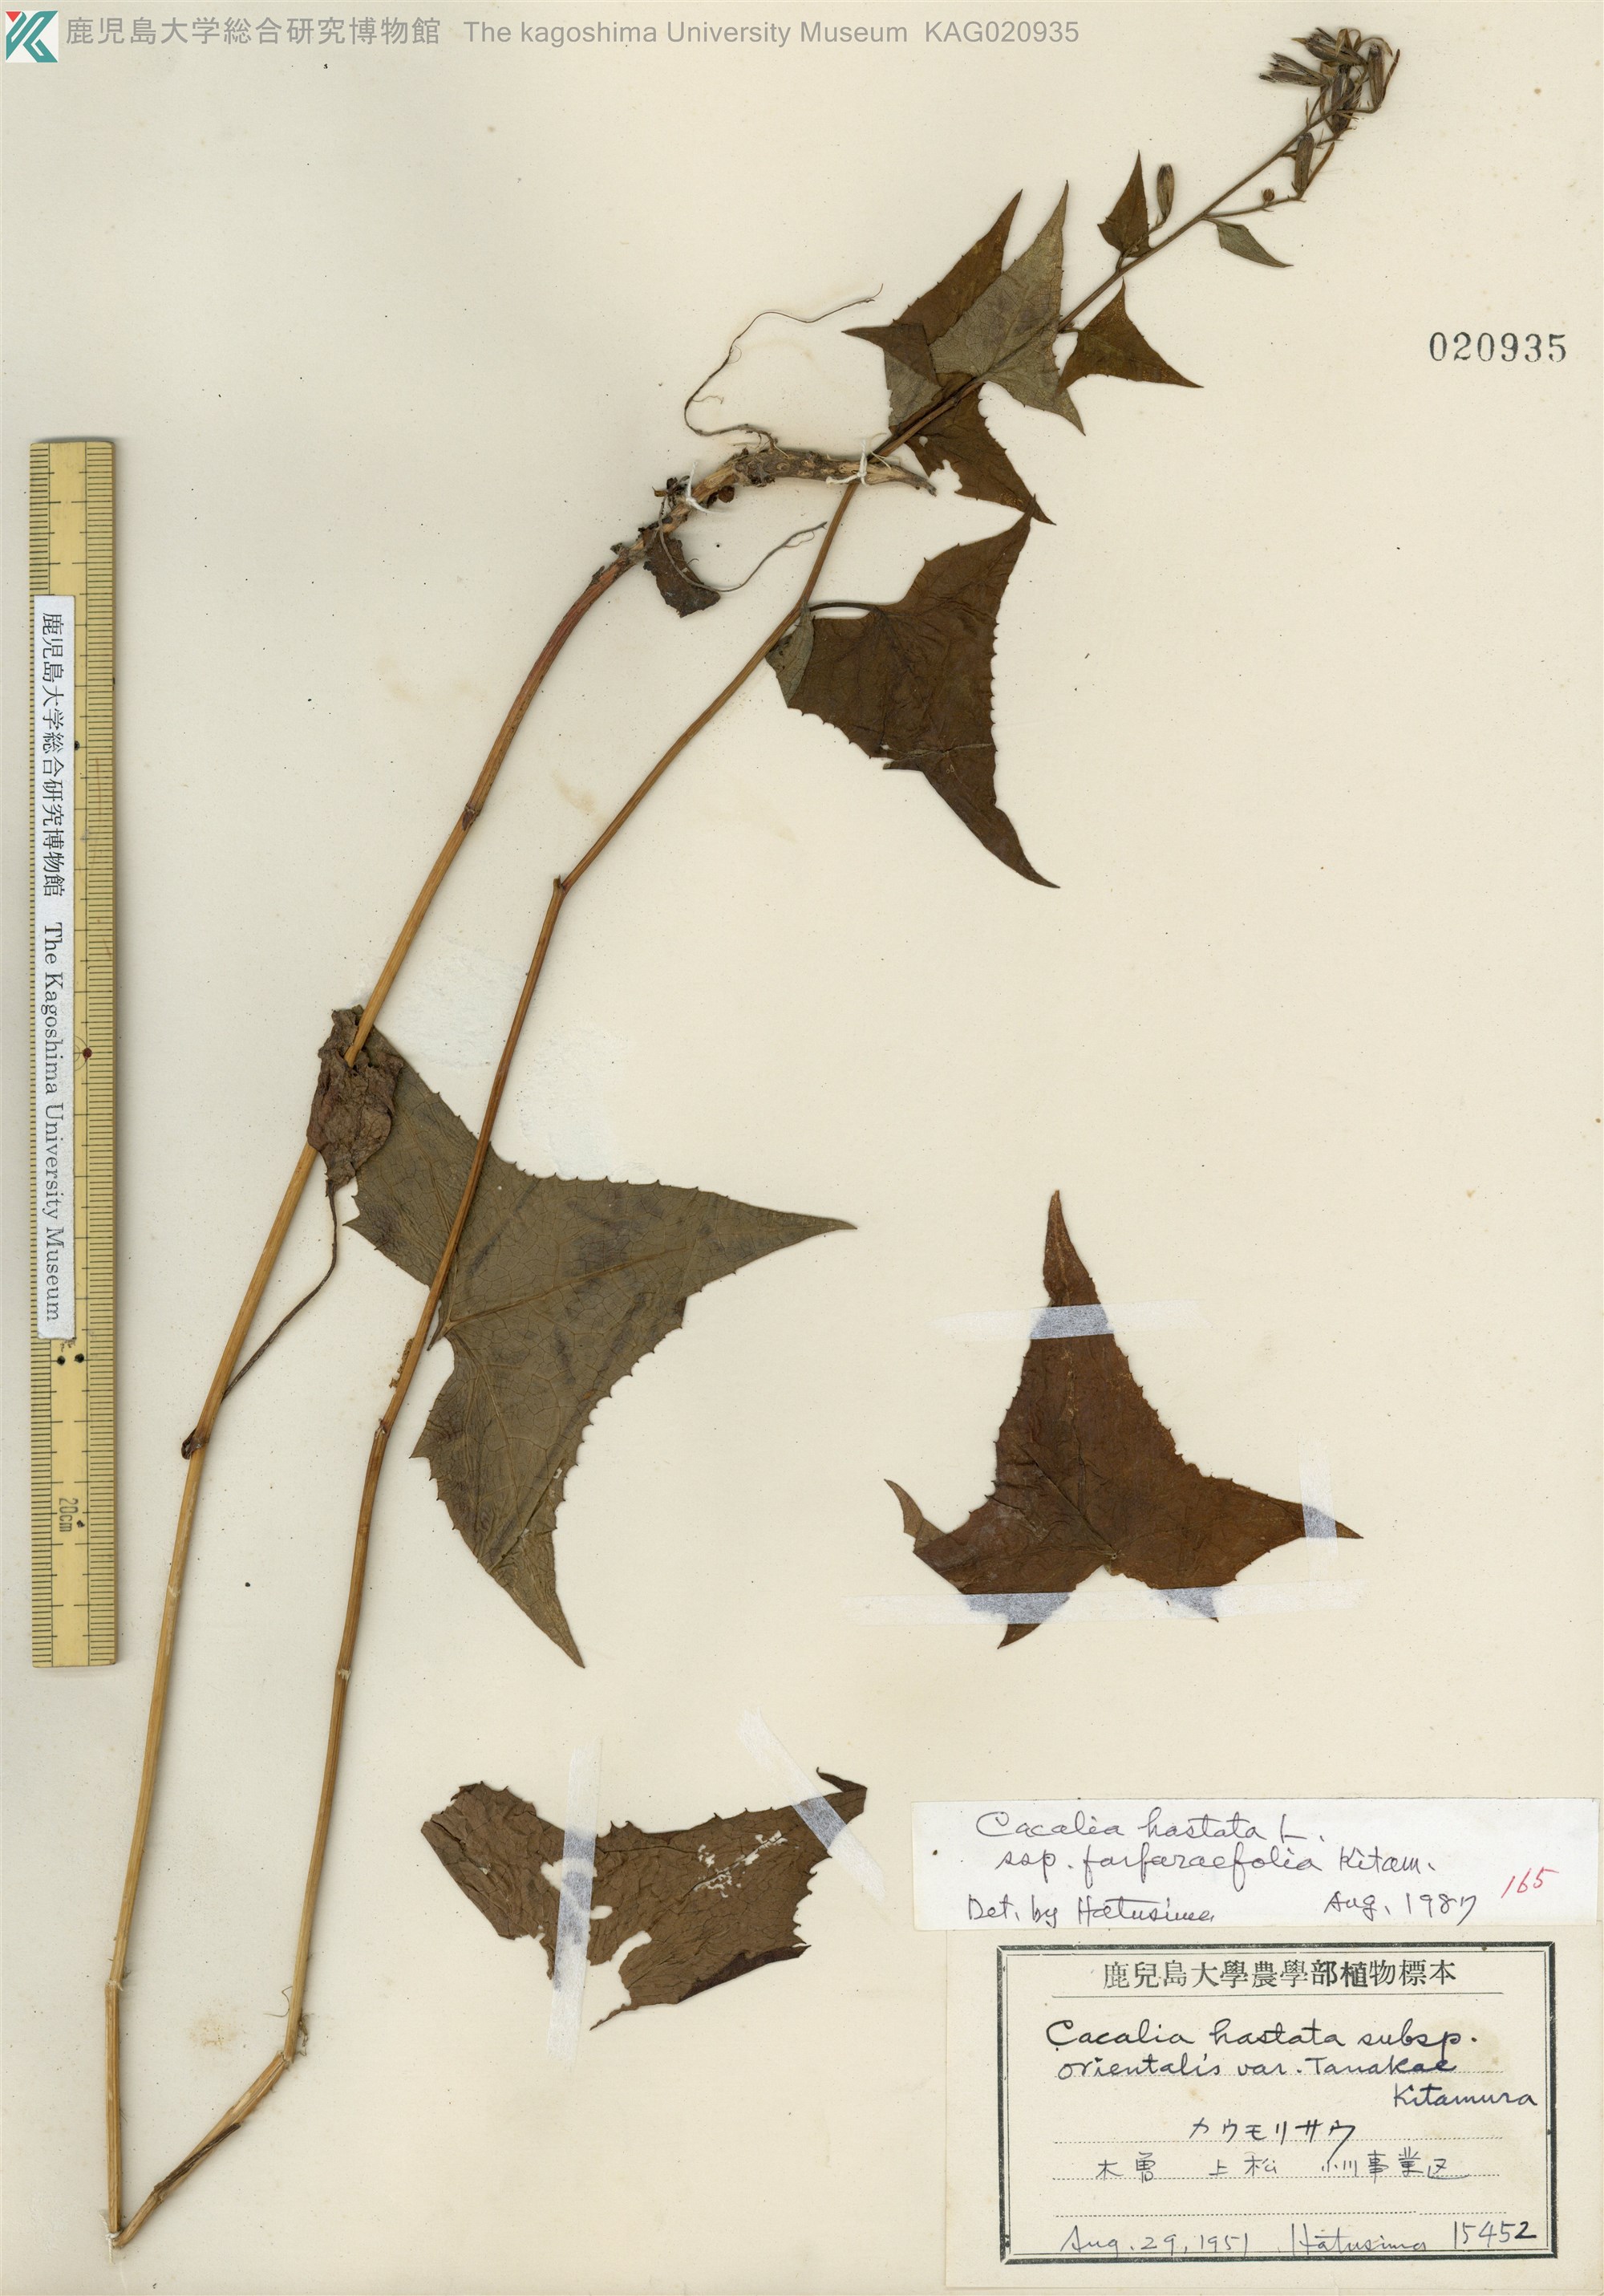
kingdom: Plantae
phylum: Tracheophyta
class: Magnoliopsida
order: Asterales
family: Asteraceae
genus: Parasenecio
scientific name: Parasenecio maximowicziana
